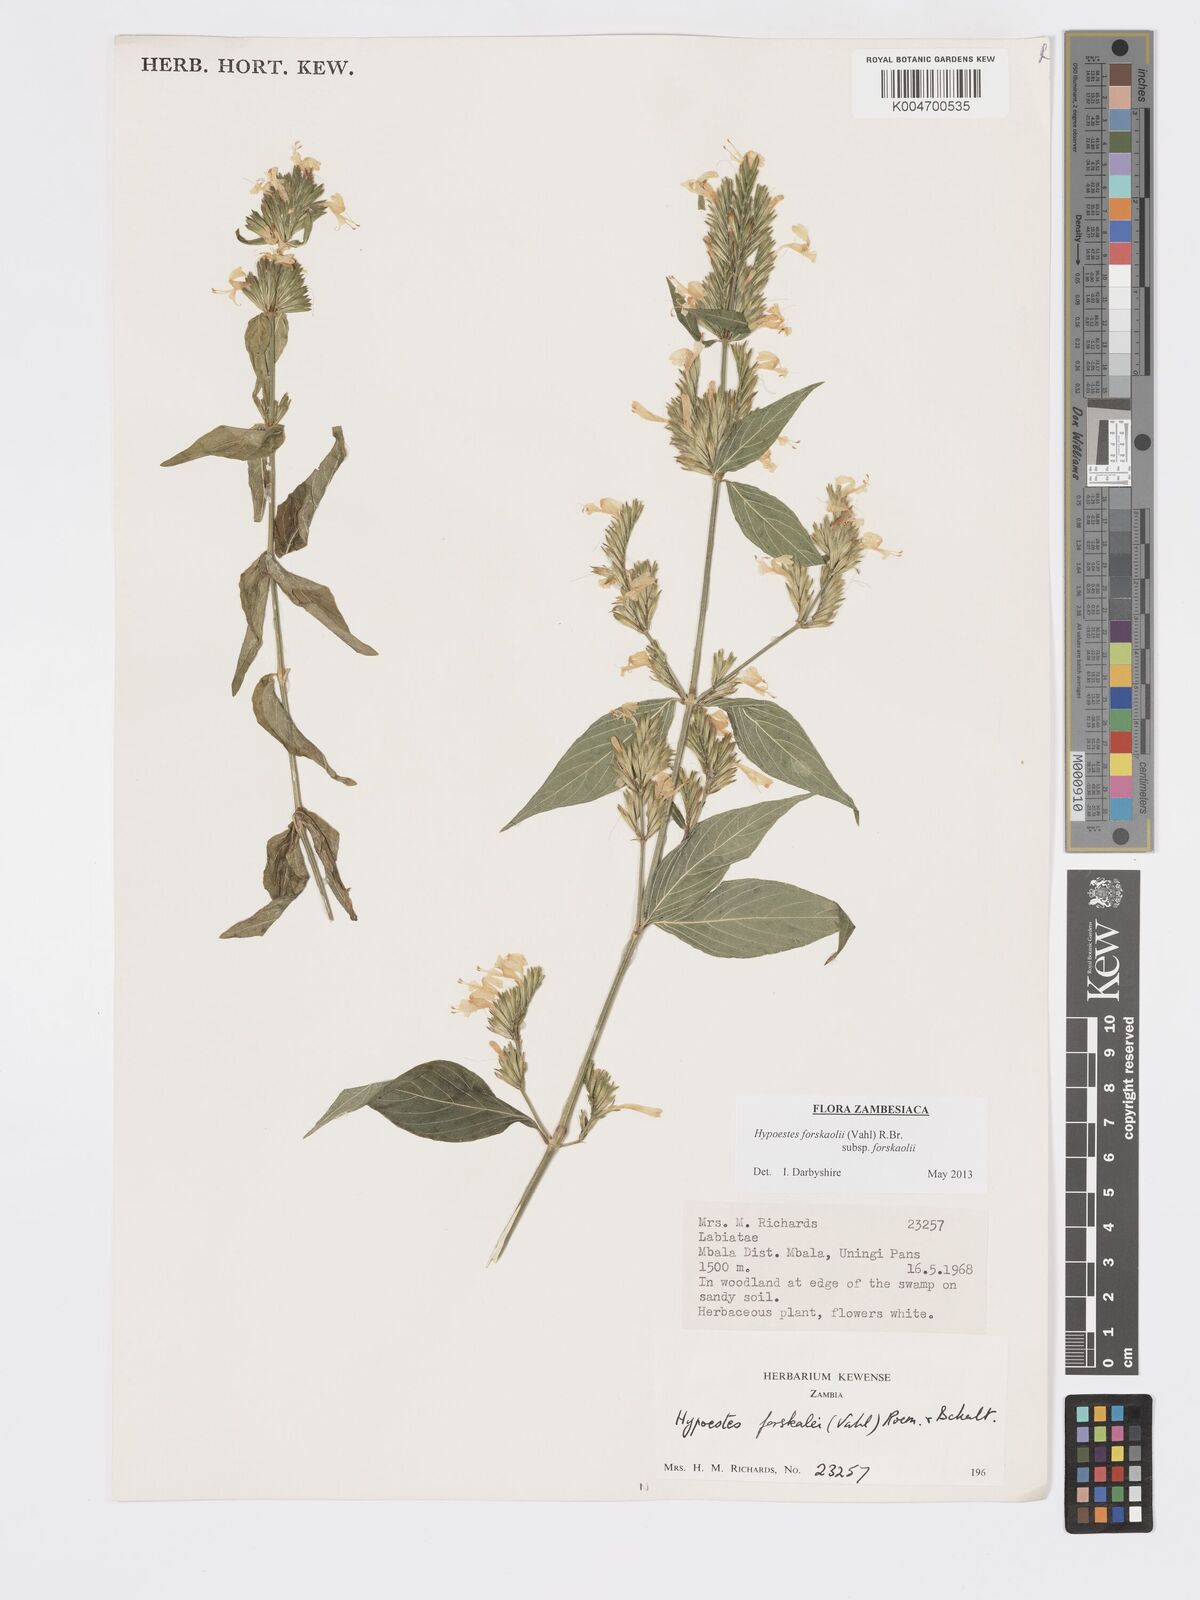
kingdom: Plantae
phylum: Tracheophyta
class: Magnoliopsida
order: Lamiales
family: Acanthaceae
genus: Hypoestes
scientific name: Hypoestes forskaolii
